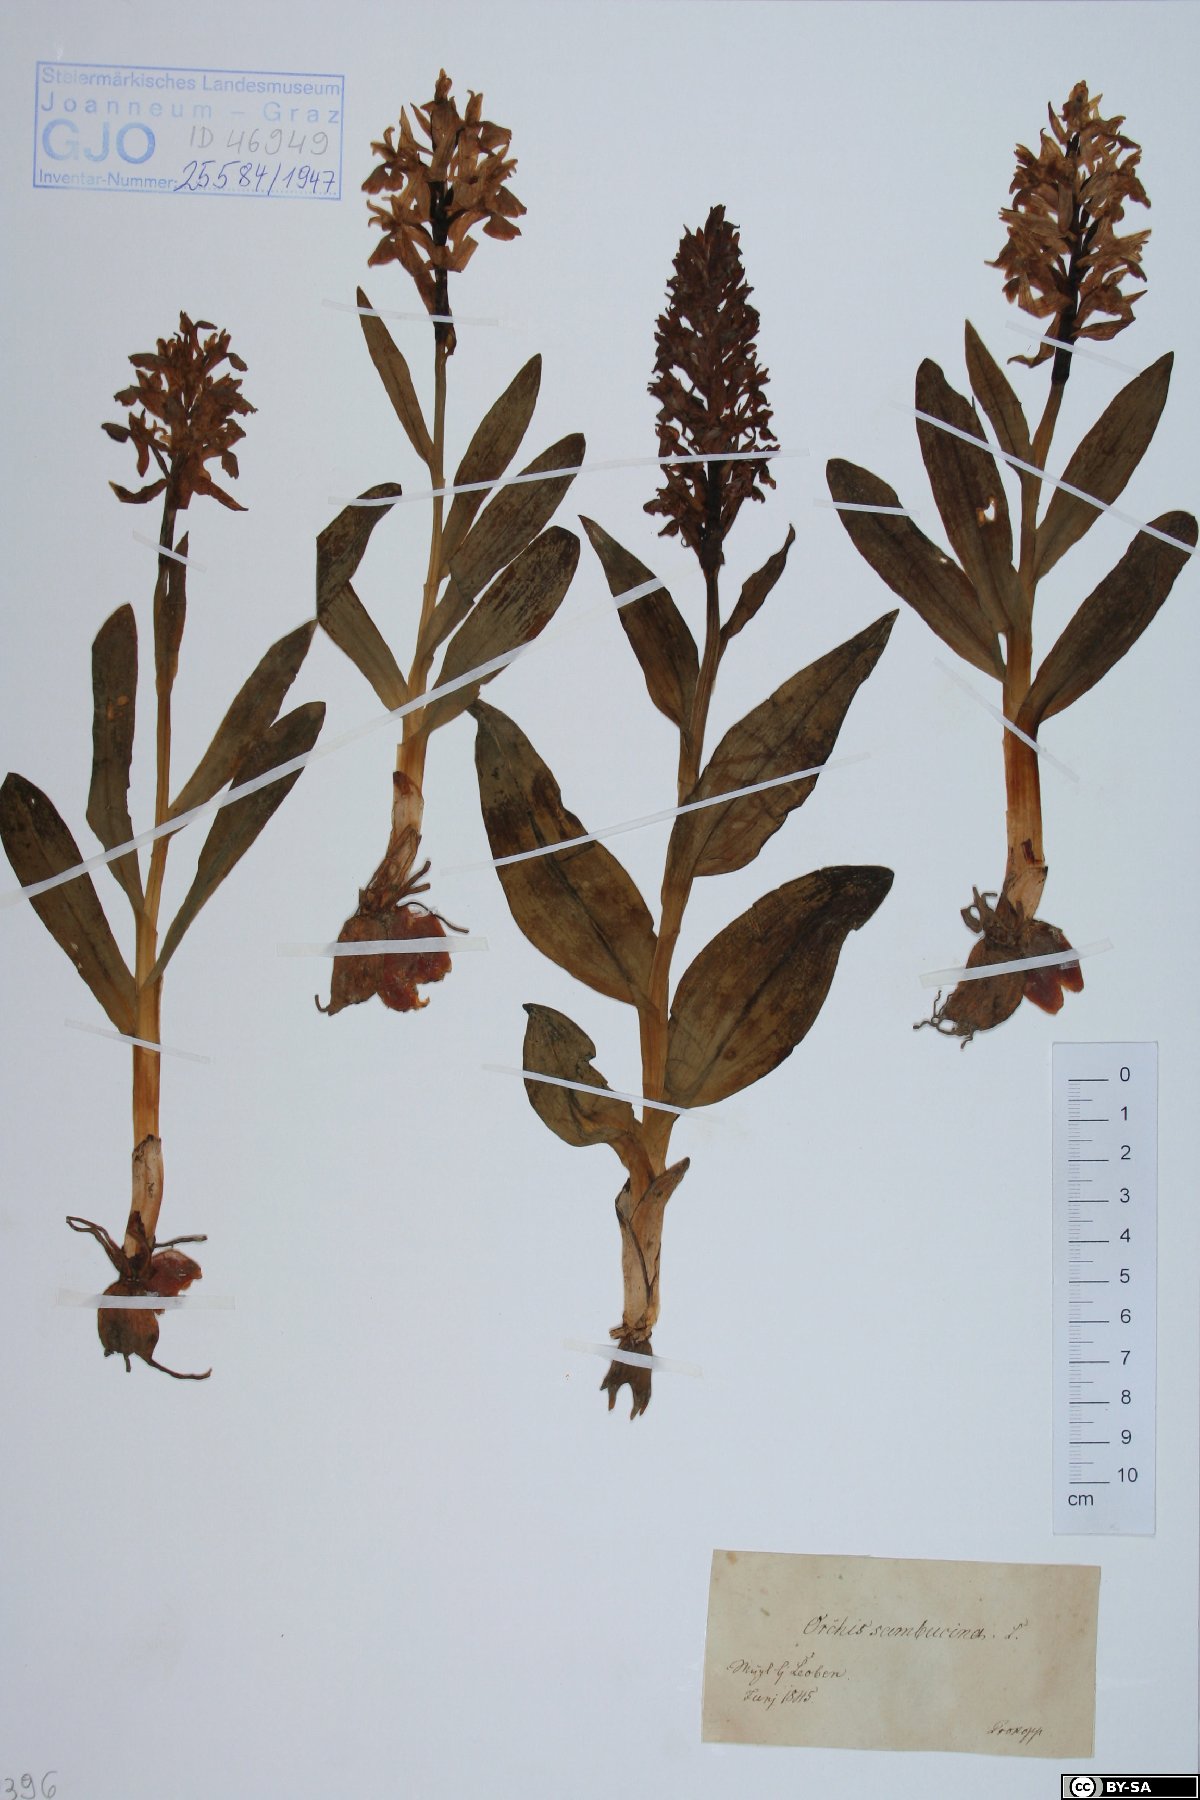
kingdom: Plantae
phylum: Tracheophyta
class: Liliopsida
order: Asparagales
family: Orchidaceae
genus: Dactylorhiza
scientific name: Dactylorhiza sambucina
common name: Elder-flowered orchid
